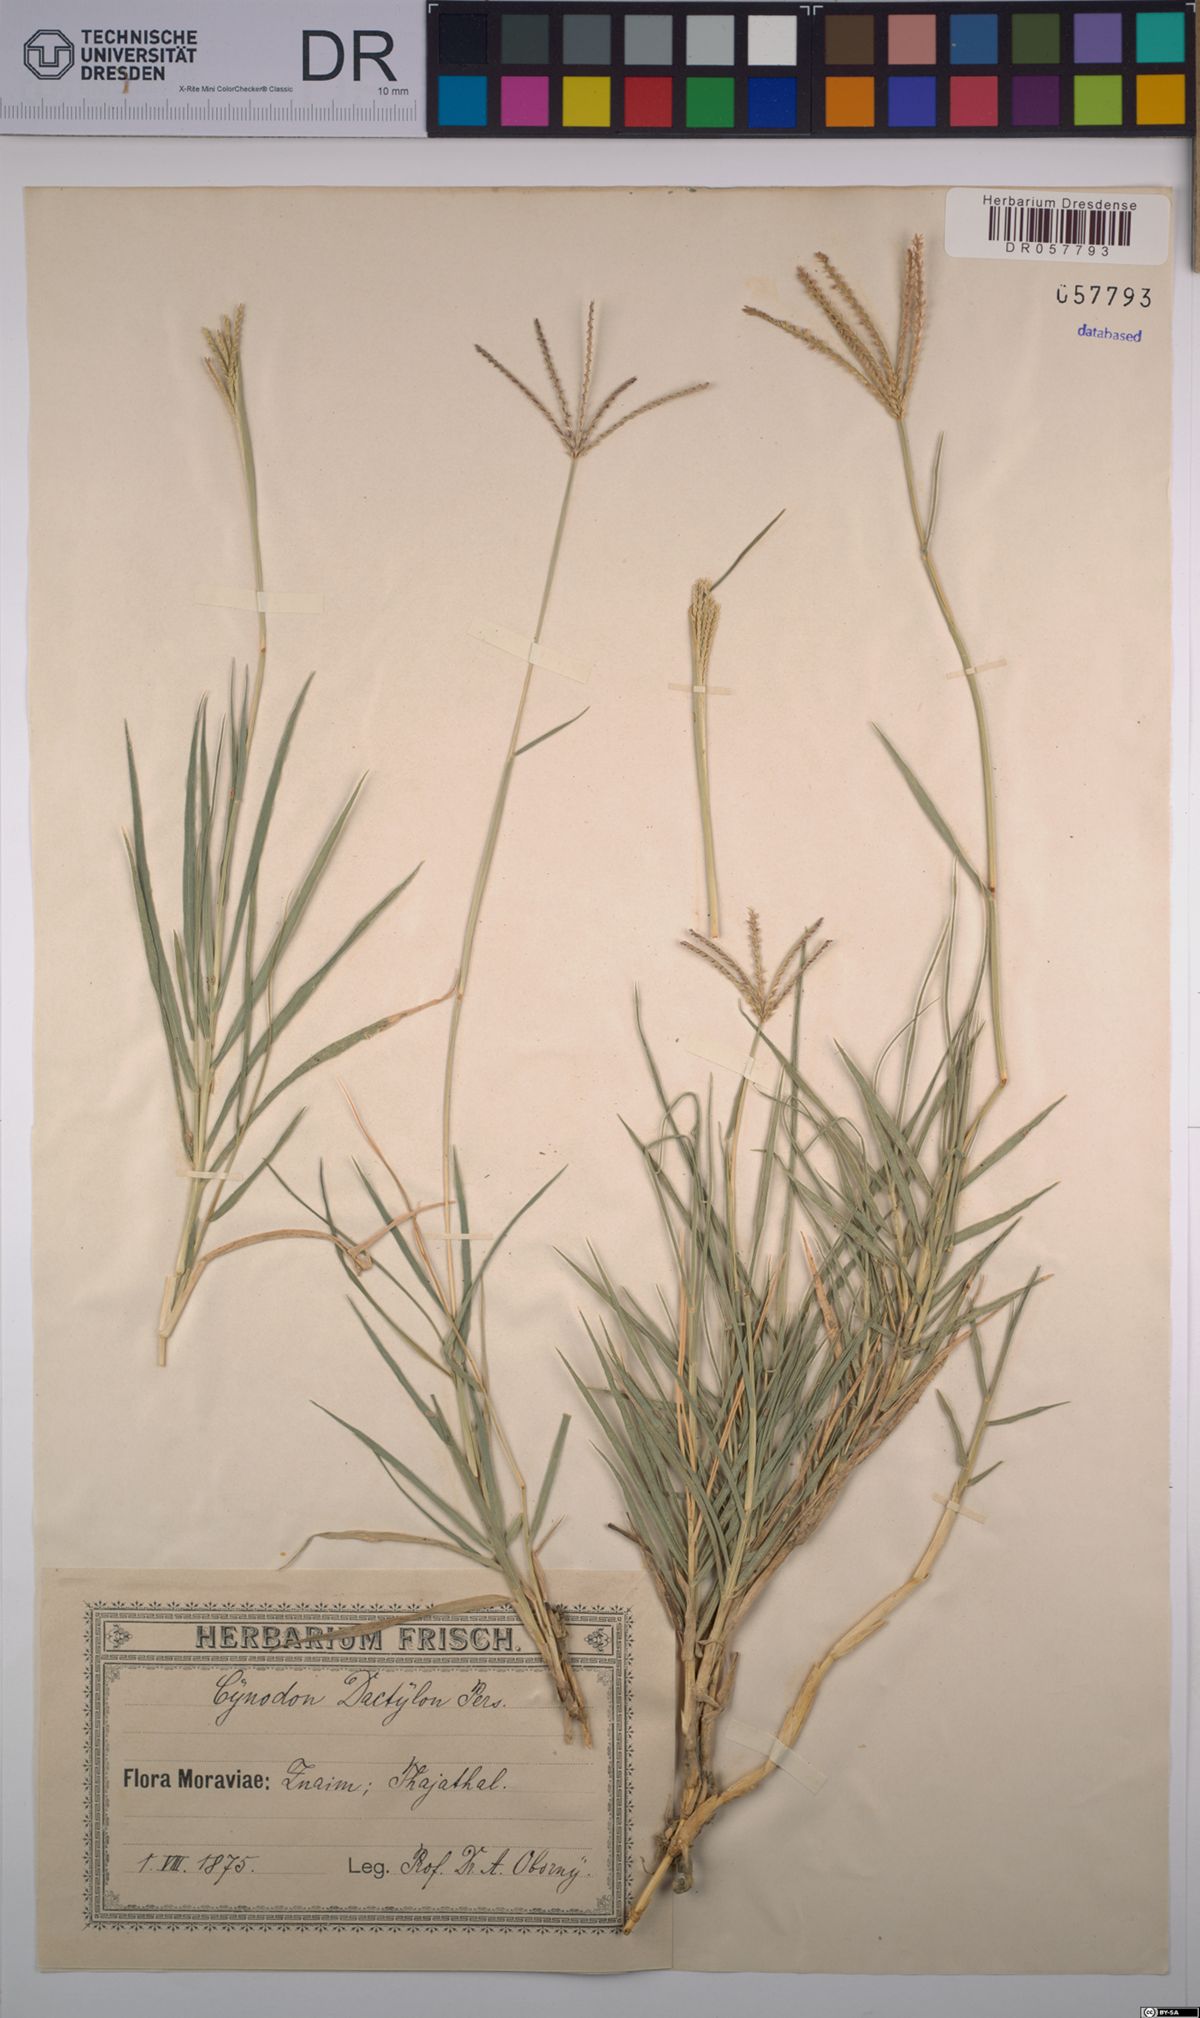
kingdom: Plantae
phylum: Tracheophyta
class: Liliopsida
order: Poales
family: Poaceae
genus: Cynodon
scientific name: Cynodon dactylon
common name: Bermuda grass
